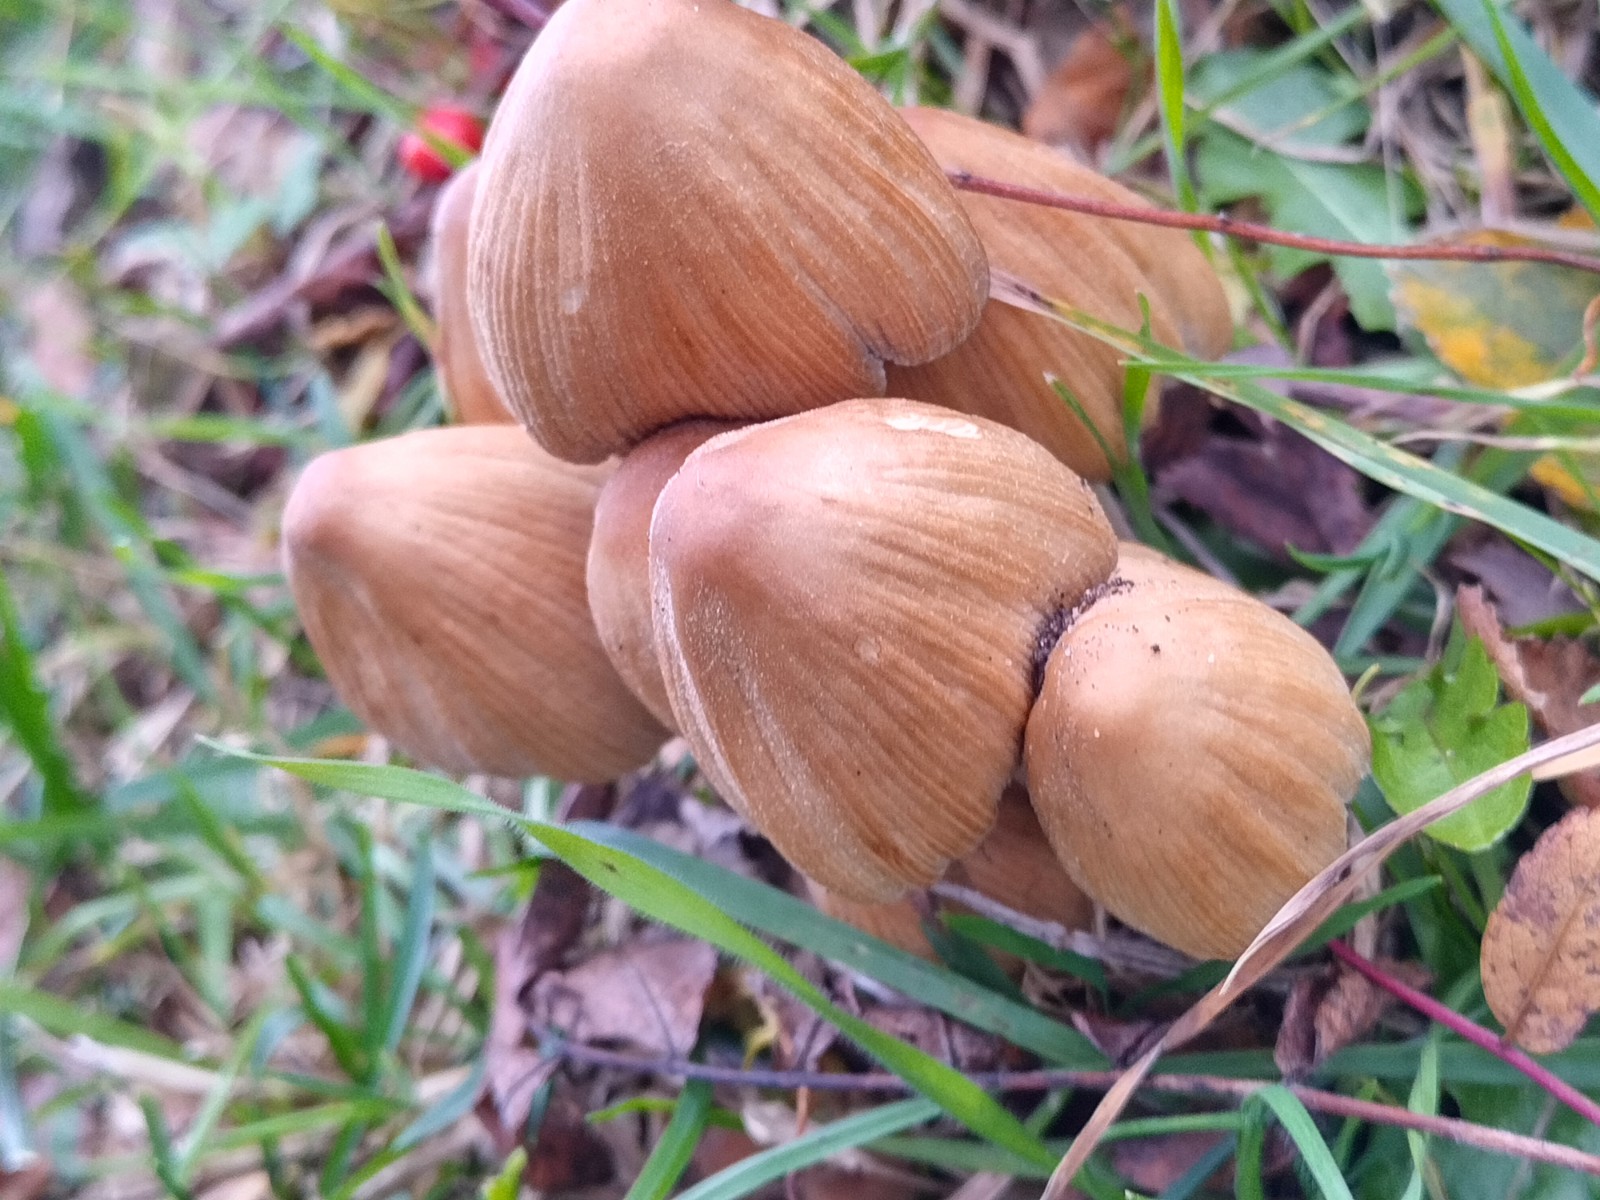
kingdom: Fungi
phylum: Basidiomycota
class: Agaricomycetes
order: Agaricales
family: Psathyrellaceae
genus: Coprinellus
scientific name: Coprinellus micaceus
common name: glimmer-blækhat
